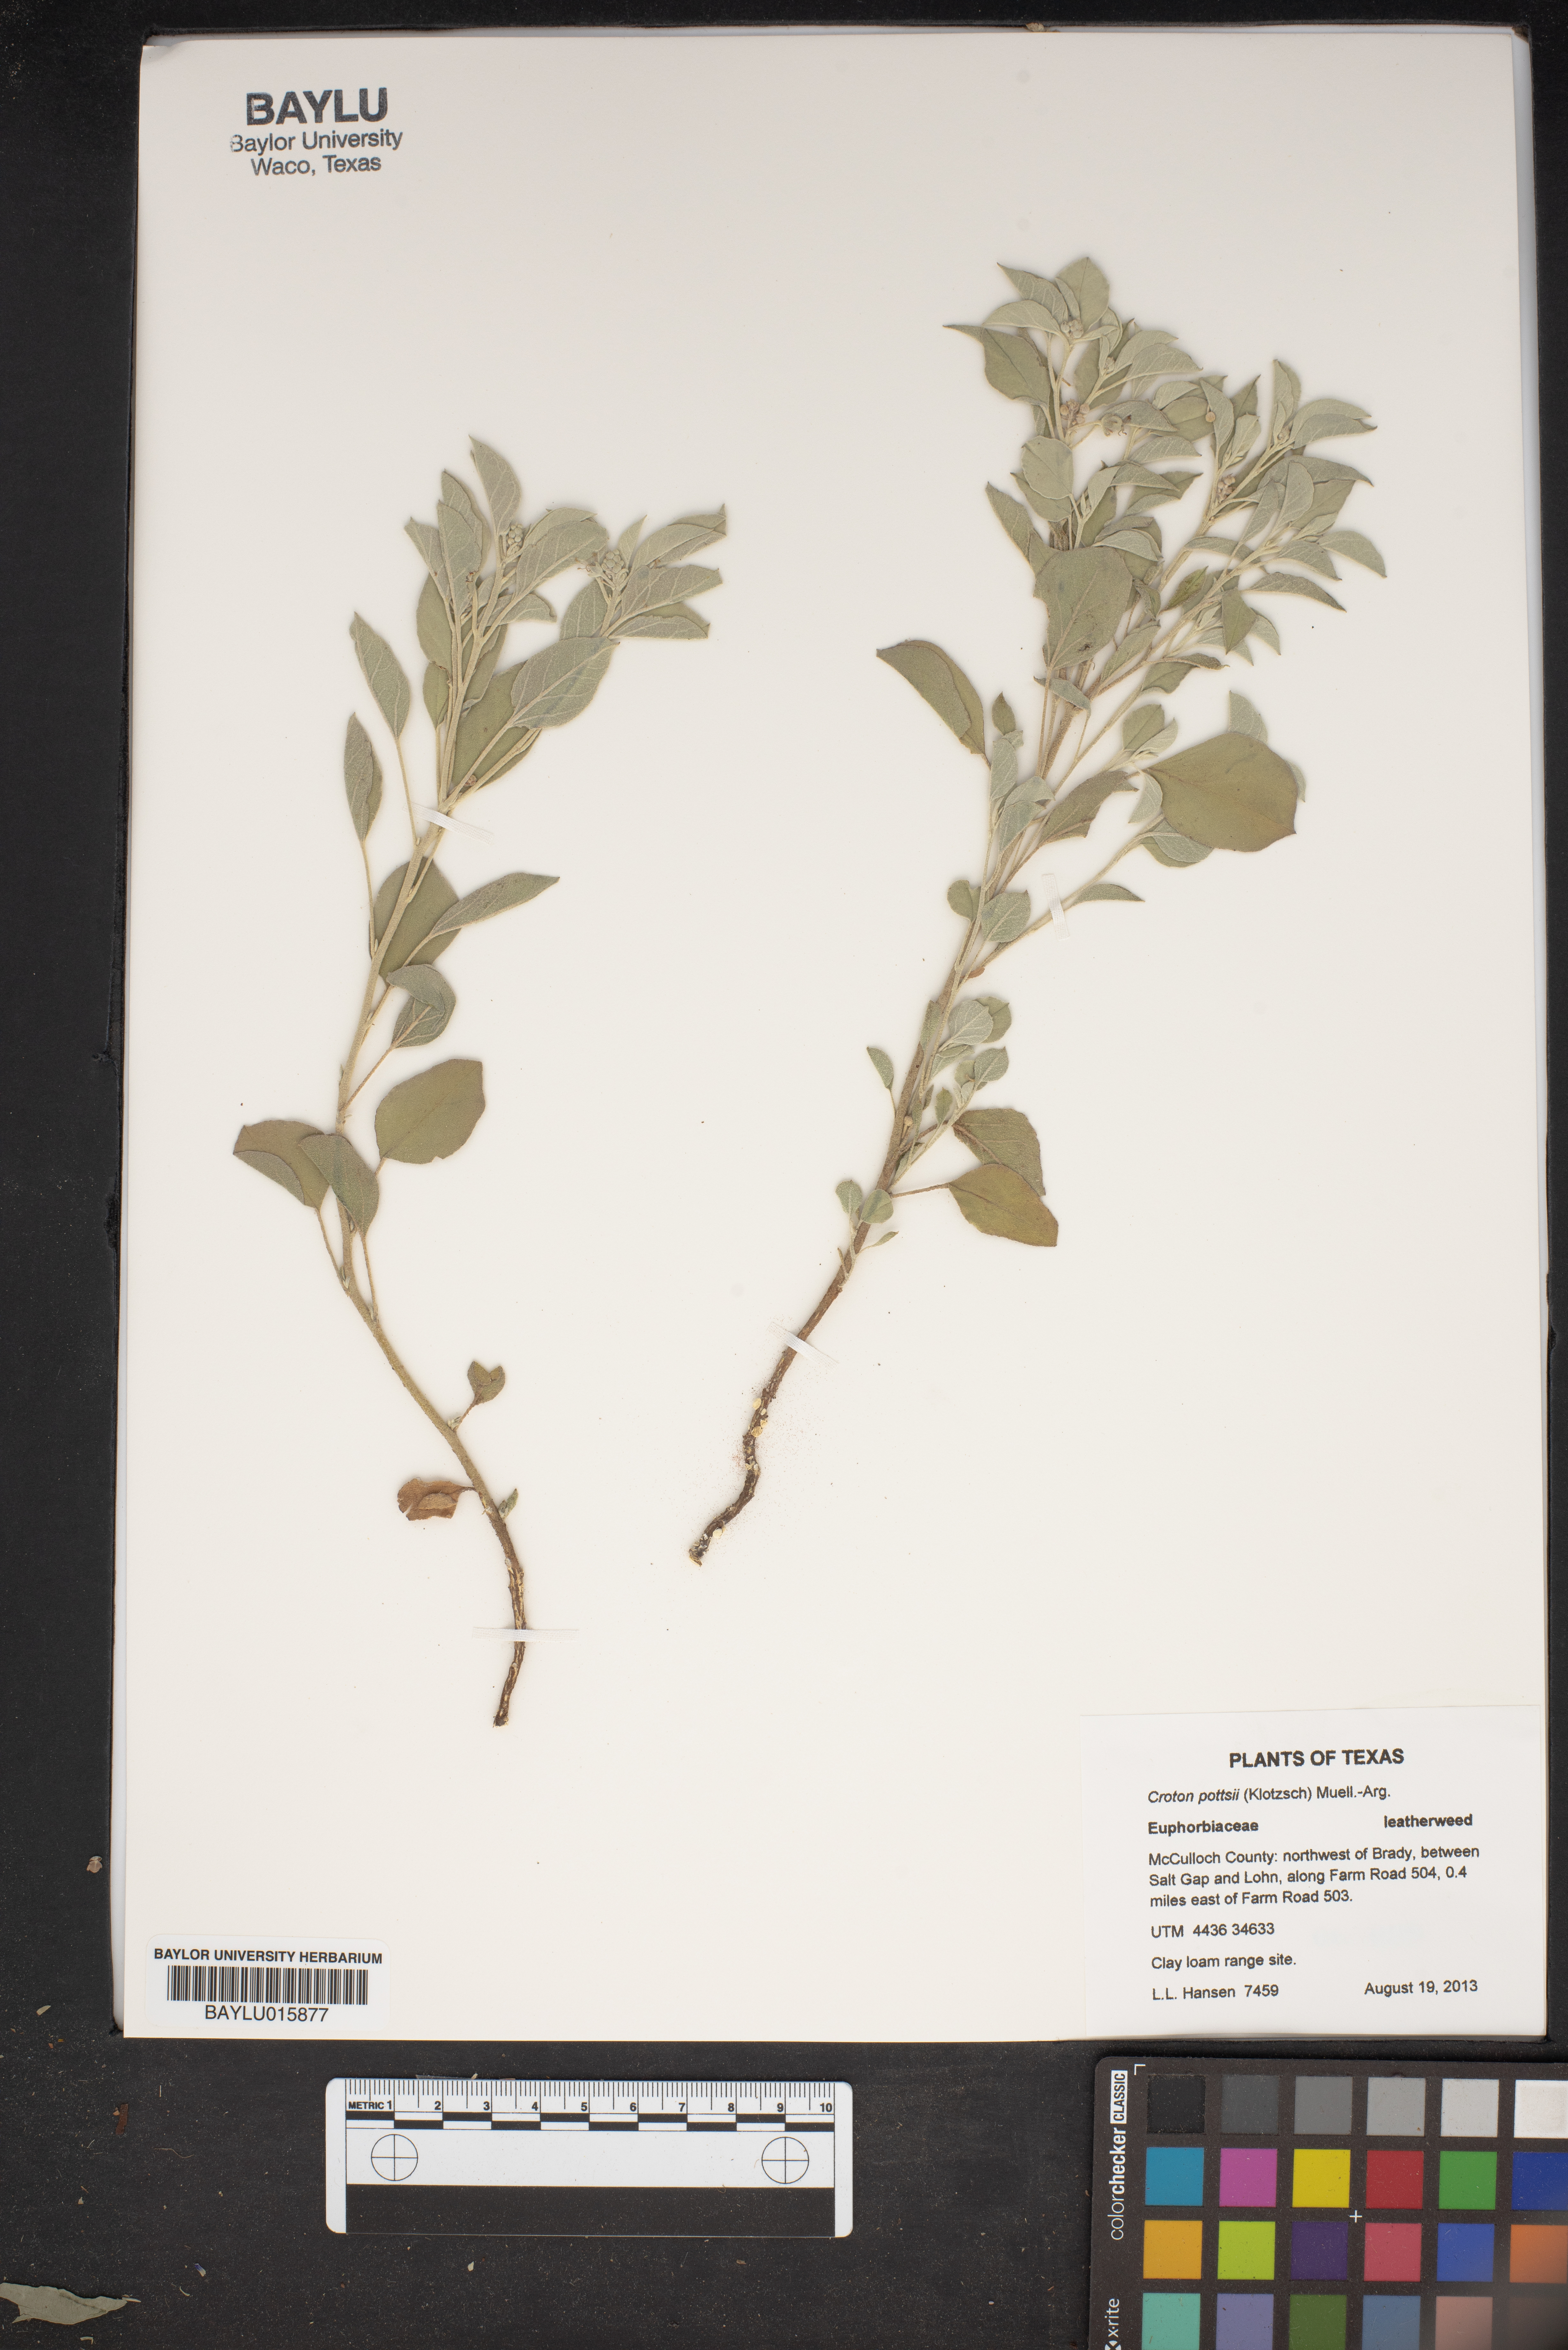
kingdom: Plantae
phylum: Tracheophyta
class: Magnoliopsida
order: Malpighiales
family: Euphorbiaceae
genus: Croton
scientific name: Croton pottsii
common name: Leatherweed
